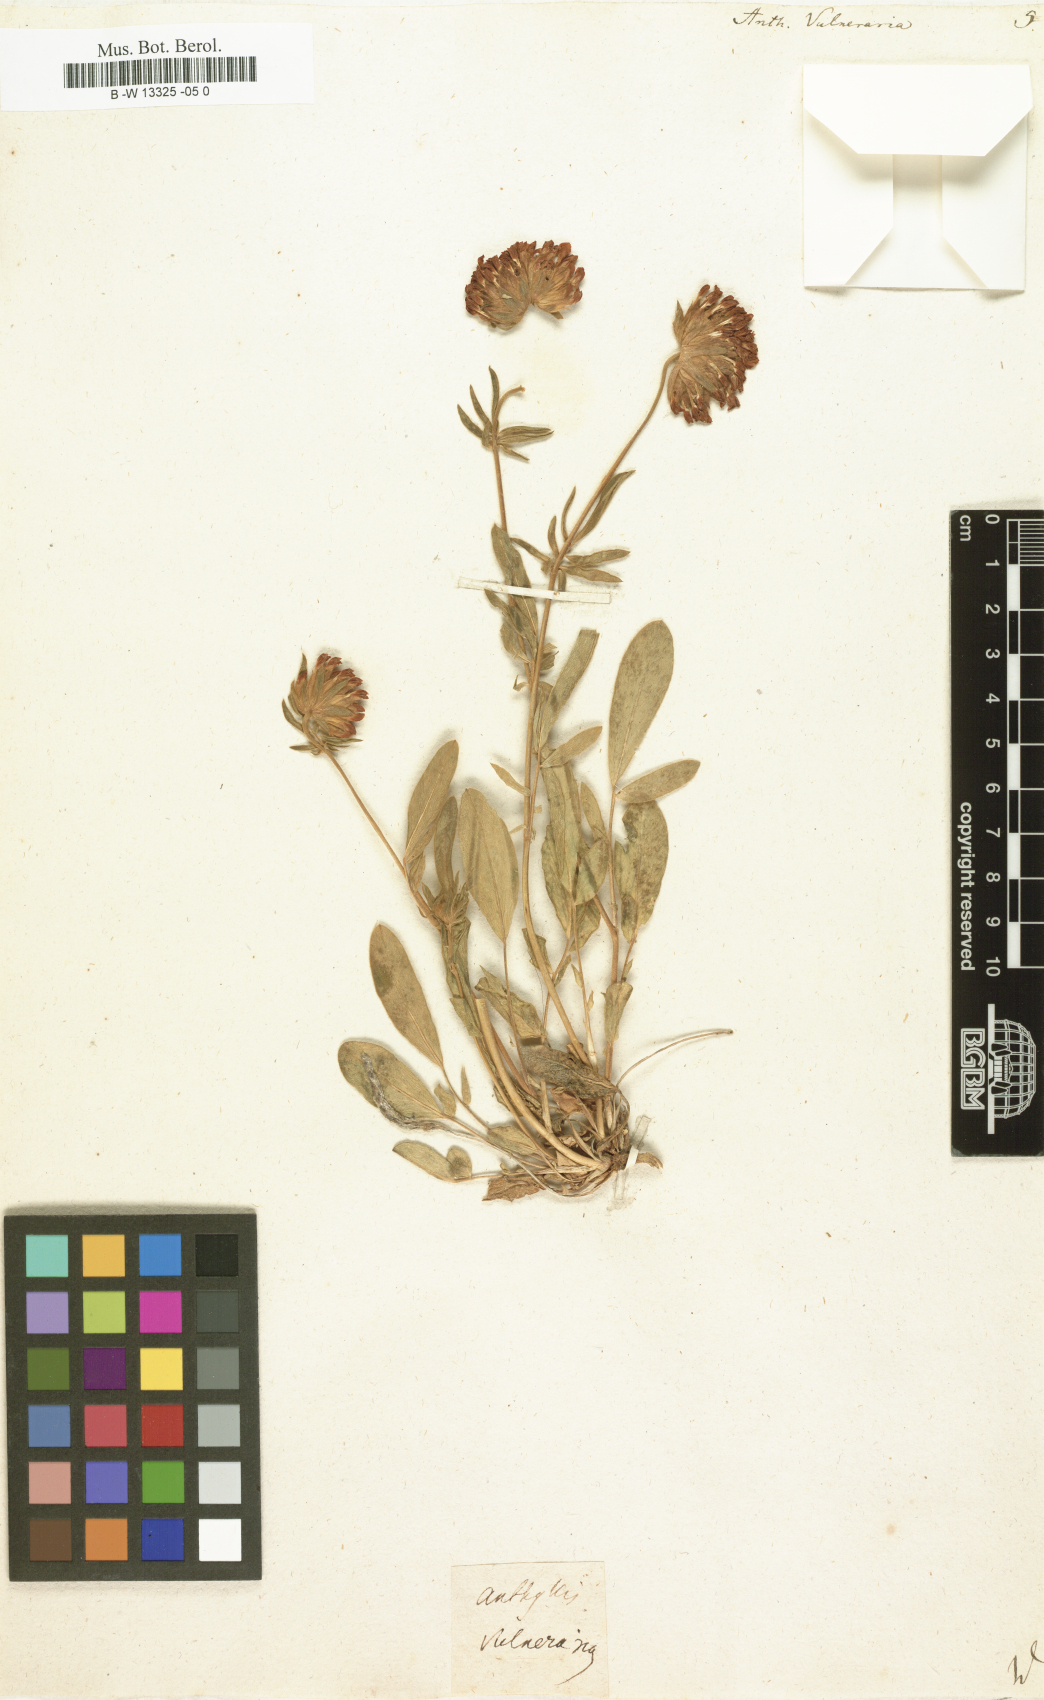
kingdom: Plantae
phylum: Tracheophyta
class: Magnoliopsida
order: Fabales
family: Fabaceae
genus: Anthyllis
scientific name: Anthyllis vulneraria
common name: Kidney vetch
